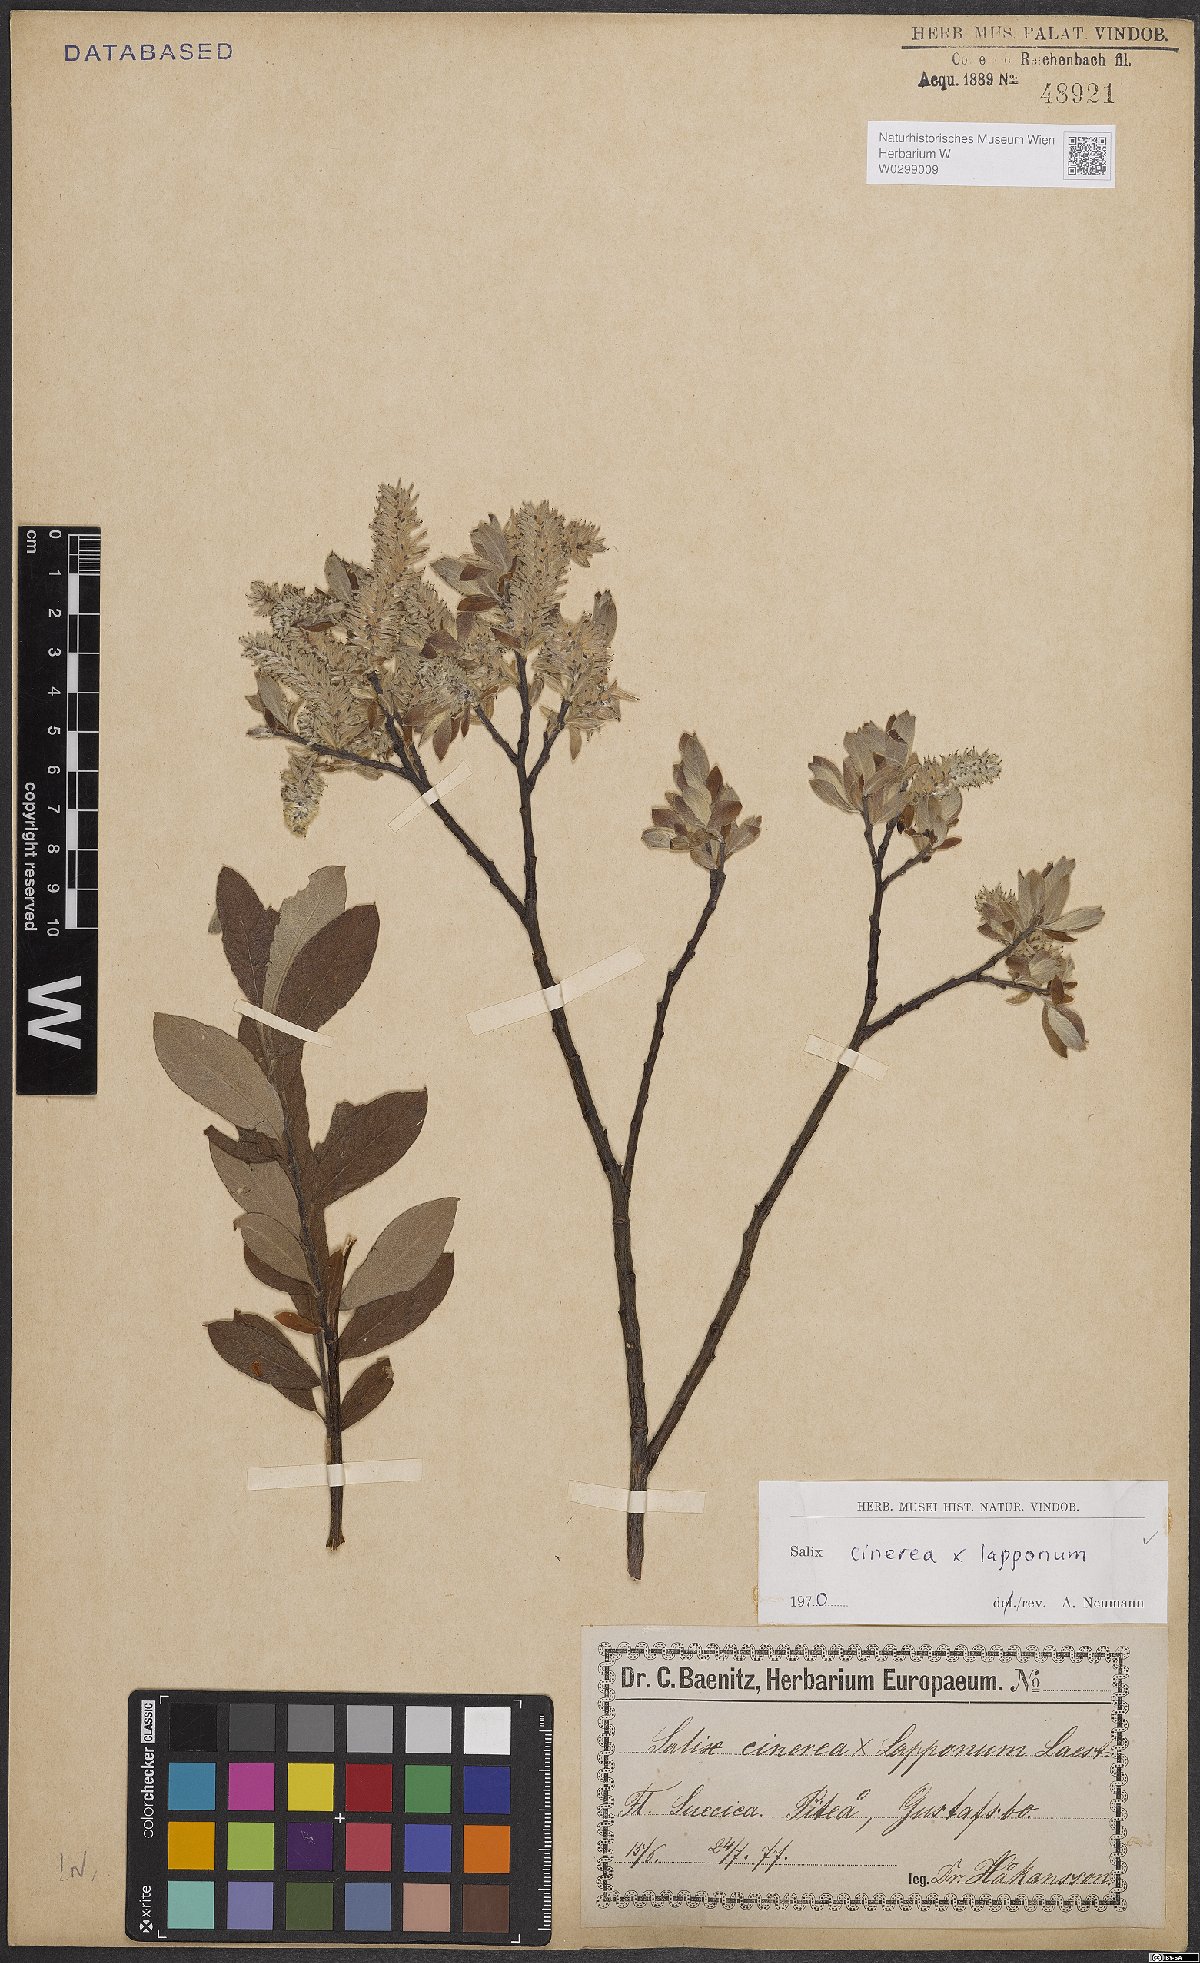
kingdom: Plantae
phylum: Tracheophyta
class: Magnoliopsida
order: Malpighiales
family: Salicaceae
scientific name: Salicaceae
